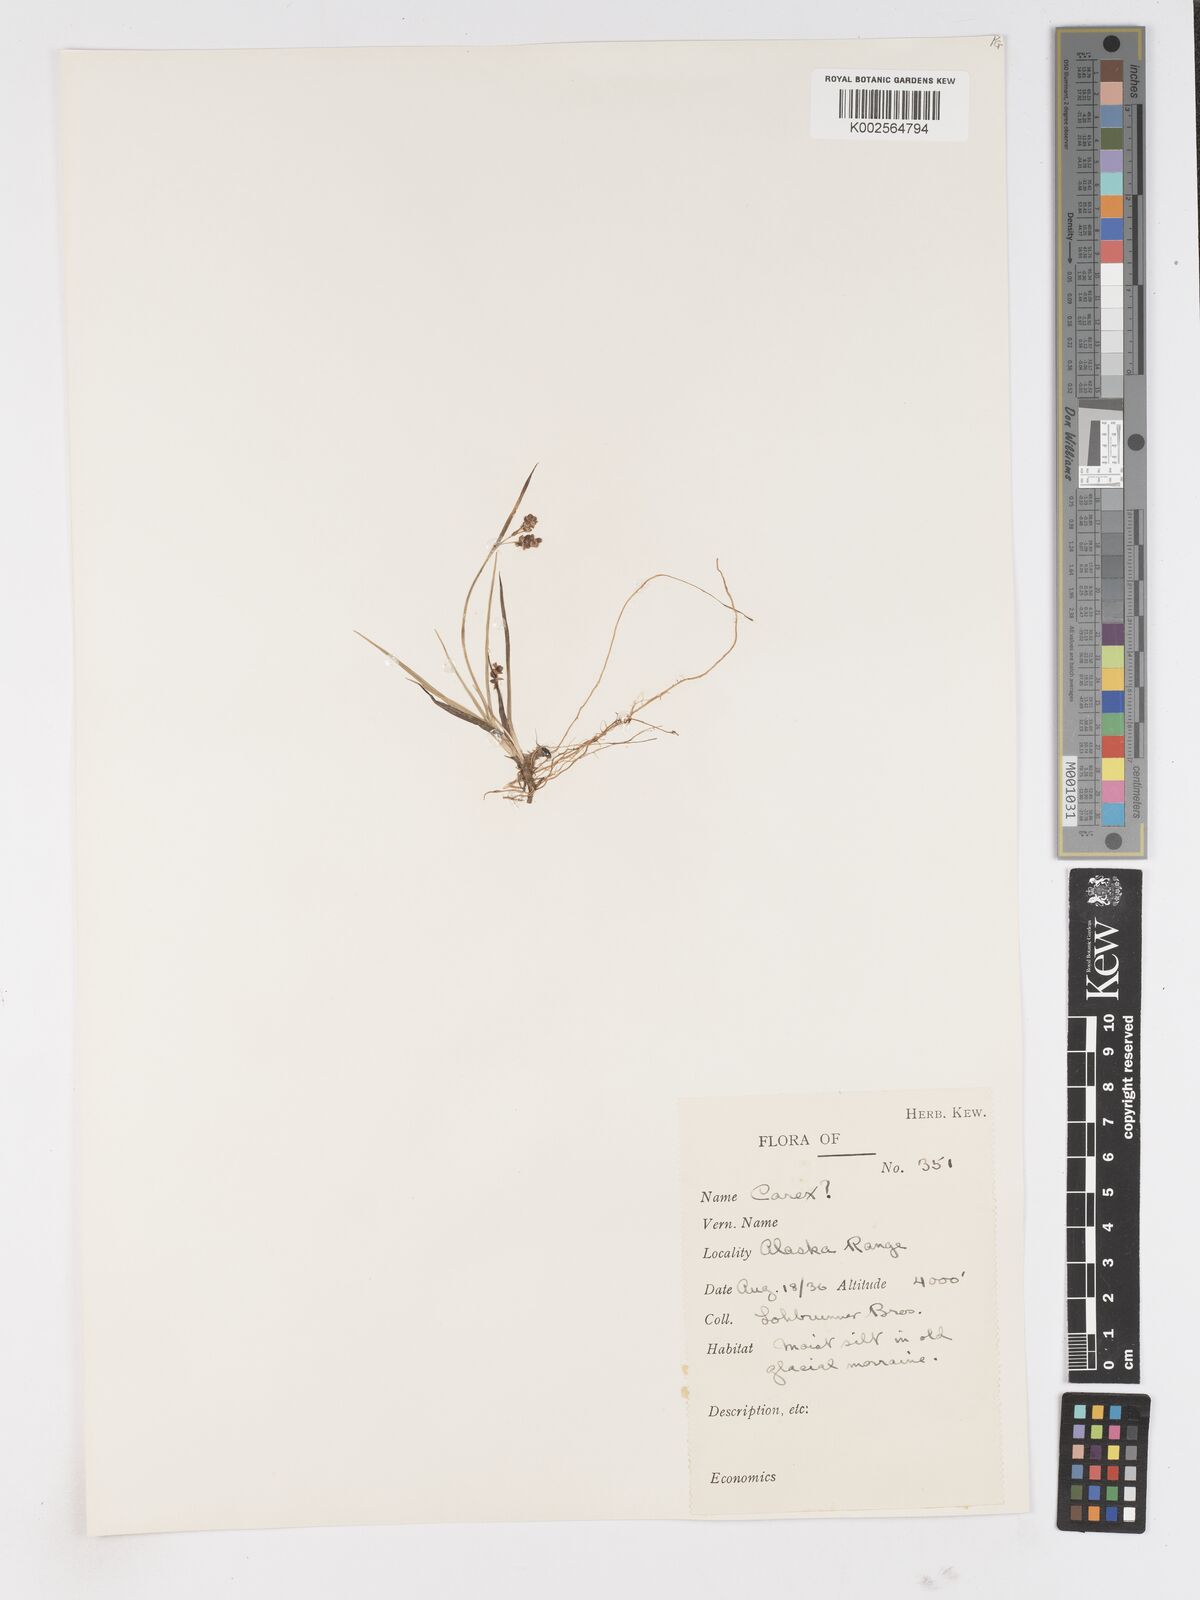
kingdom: Plantae
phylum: Tracheophyta
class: Liliopsida
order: Poales
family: Cyperaceae
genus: Carex
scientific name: Carex
